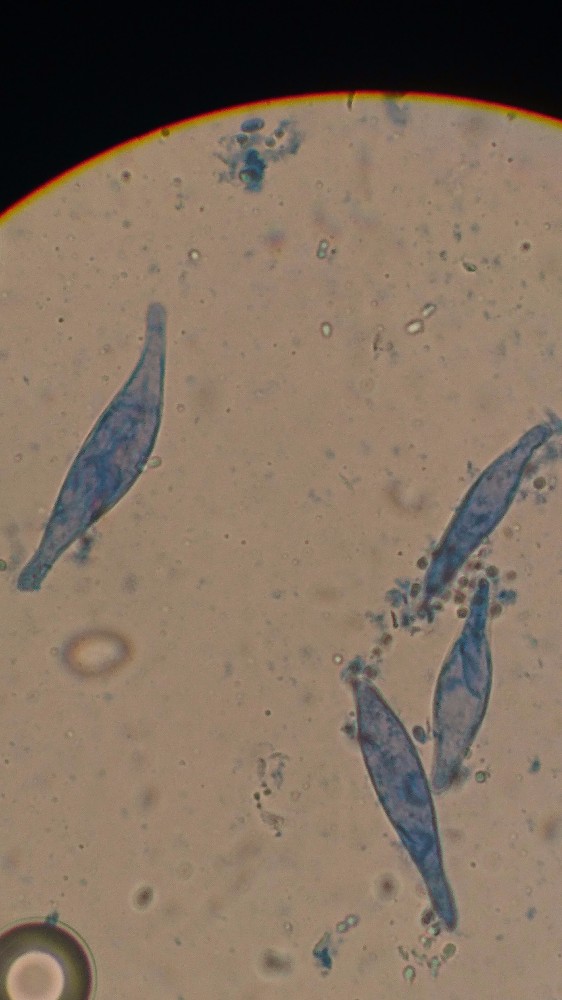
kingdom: Fungi
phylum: Basidiomycota
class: Agaricomycetes
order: Agaricales
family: Mycenaceae
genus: Mycena
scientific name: Mycena pelianthina
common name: mørkbladet huesvamp
